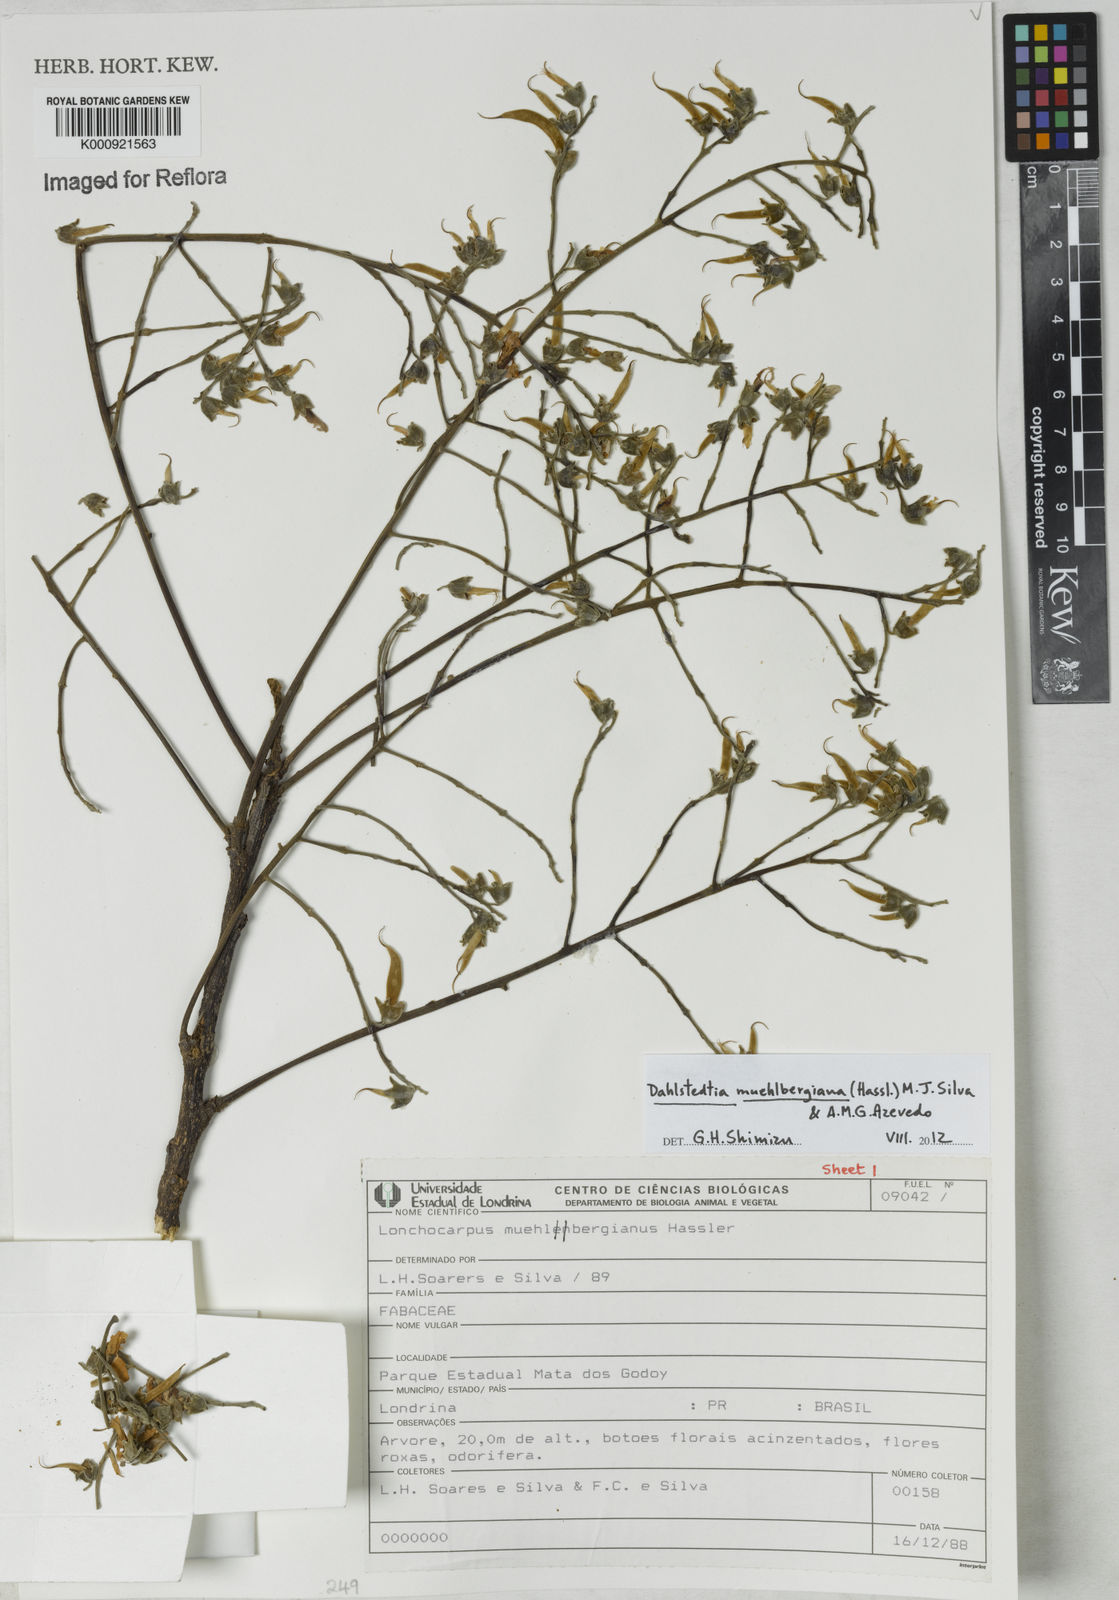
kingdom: Plantae
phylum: Tracheophyta
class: Magnoliopsida
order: Fabales
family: Fabaceae
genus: Dahlstedtia
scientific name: Dahlstedtia muehlbergiana
